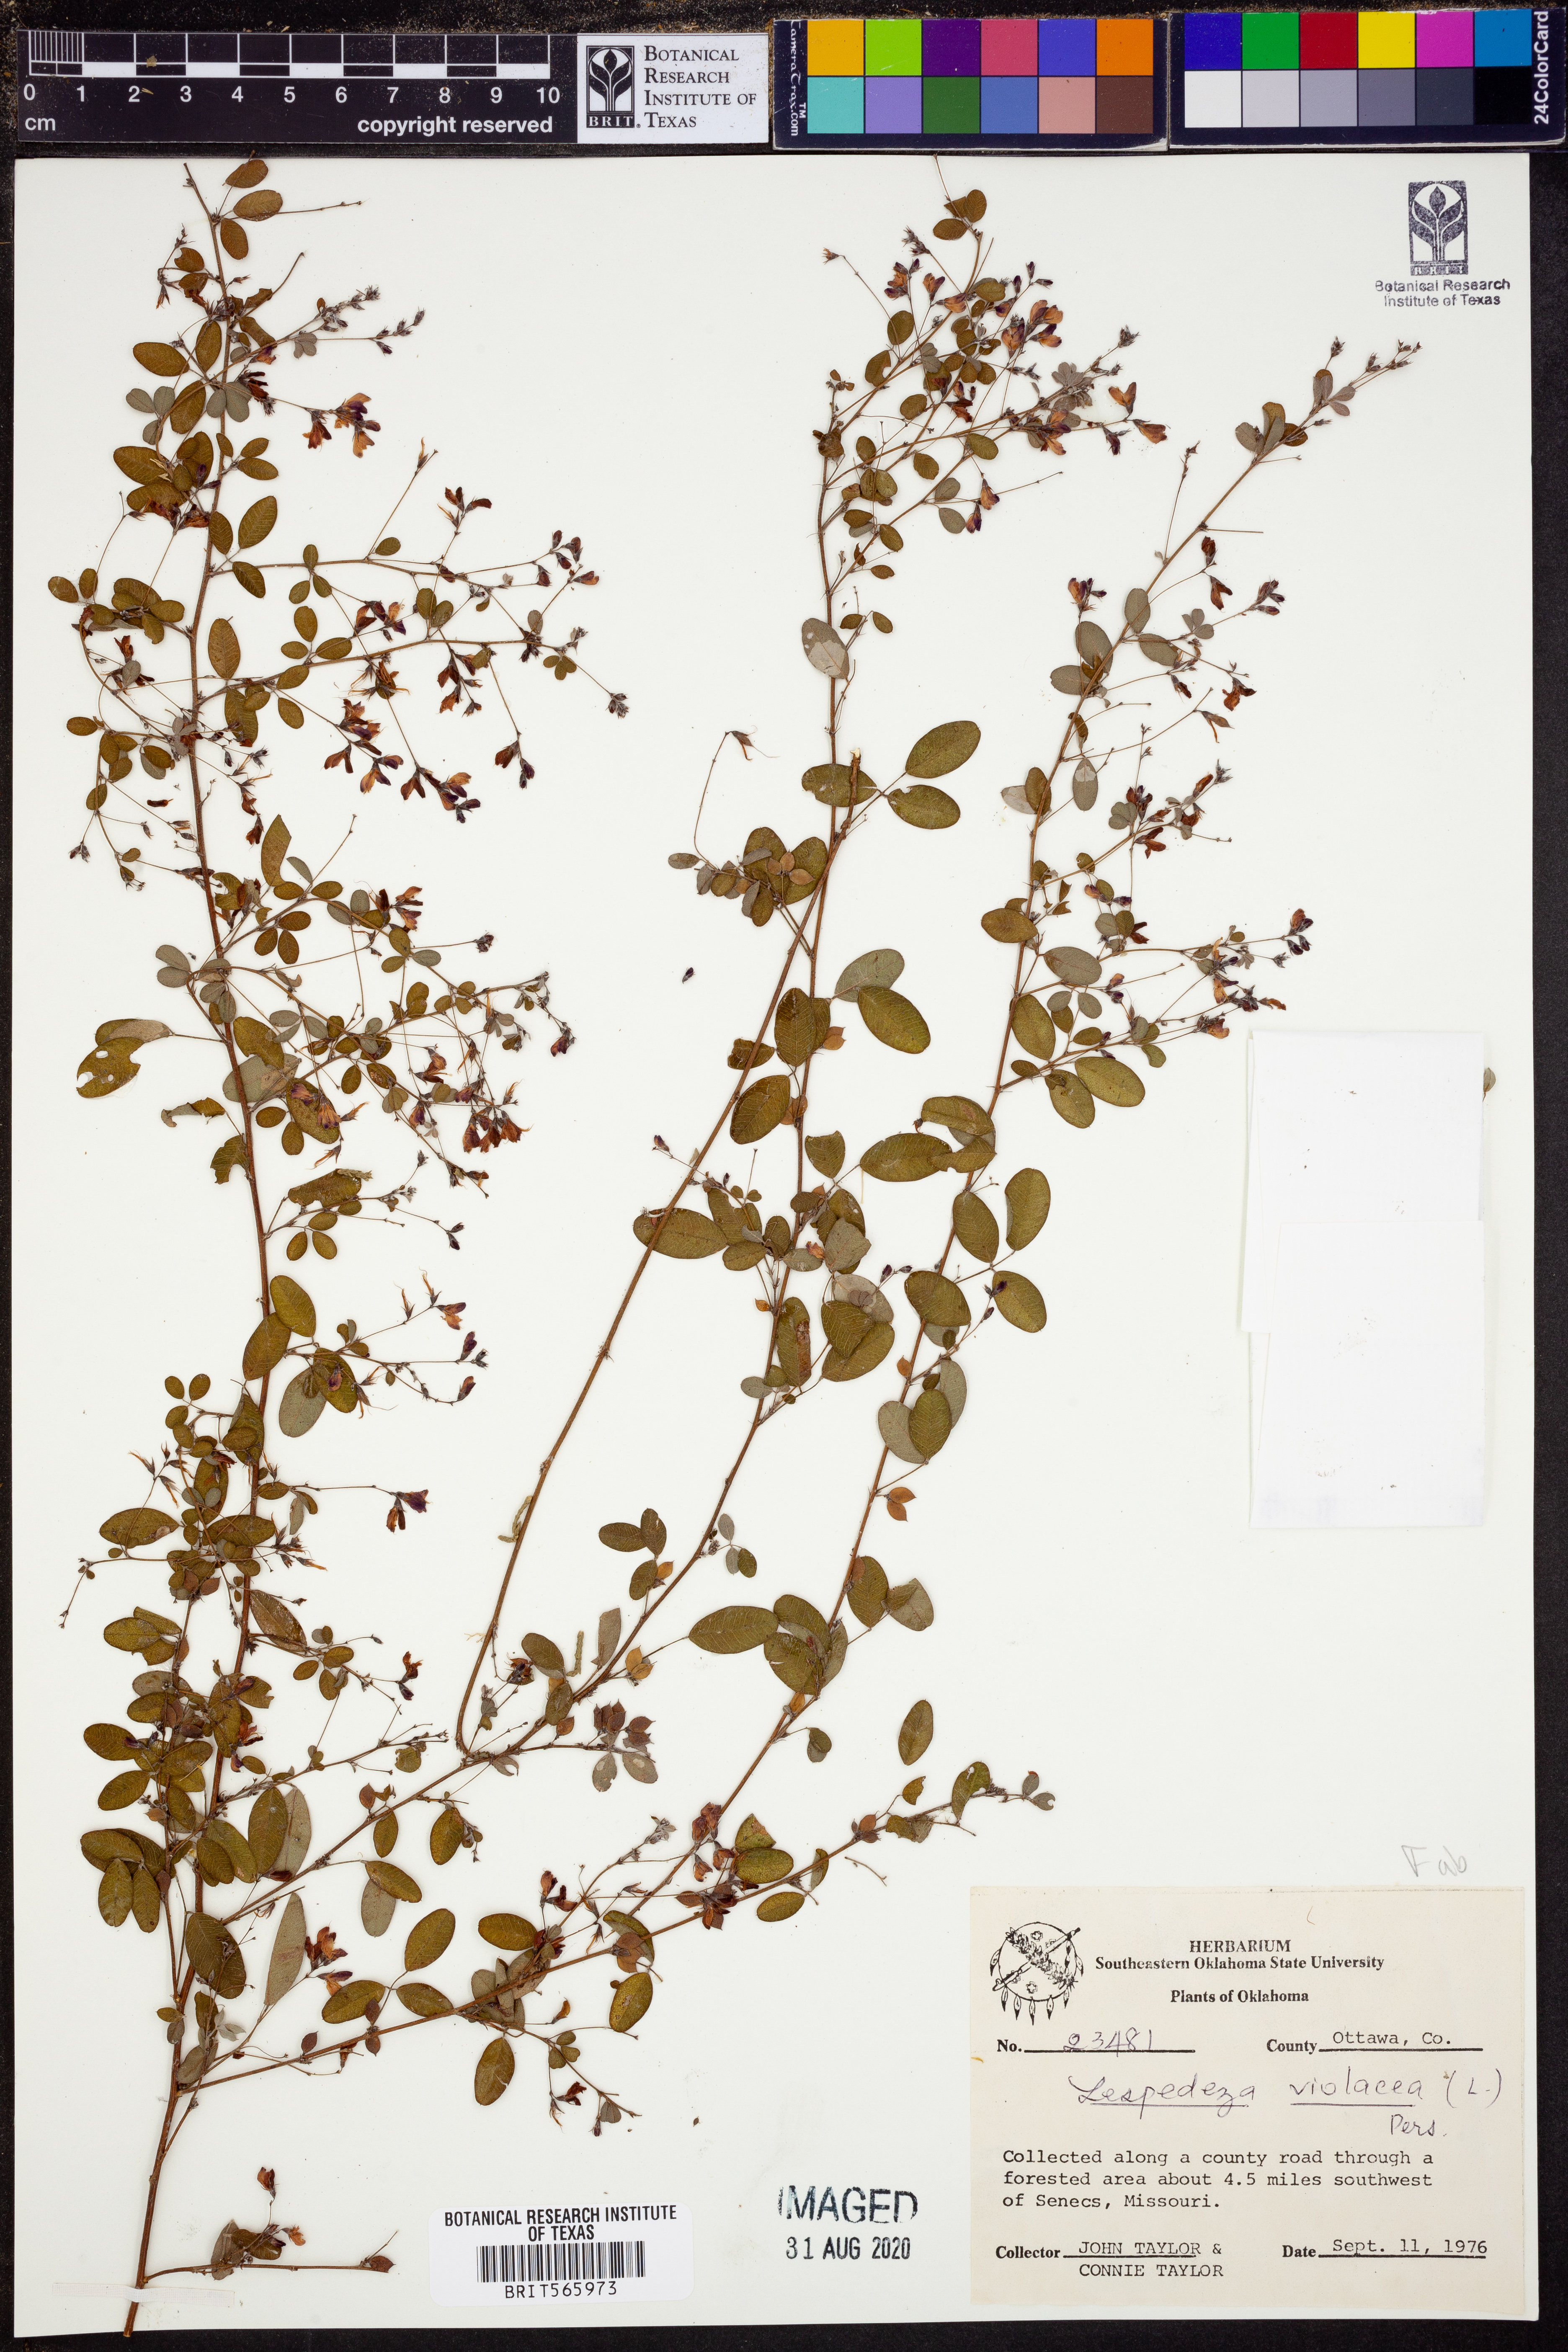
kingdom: Plantae
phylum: Tracheophyta
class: Magnoliopsida
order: Fabales
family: Fabaceae
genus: Lespedeza
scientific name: Lespedeza violacea
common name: Wand bush-clover
